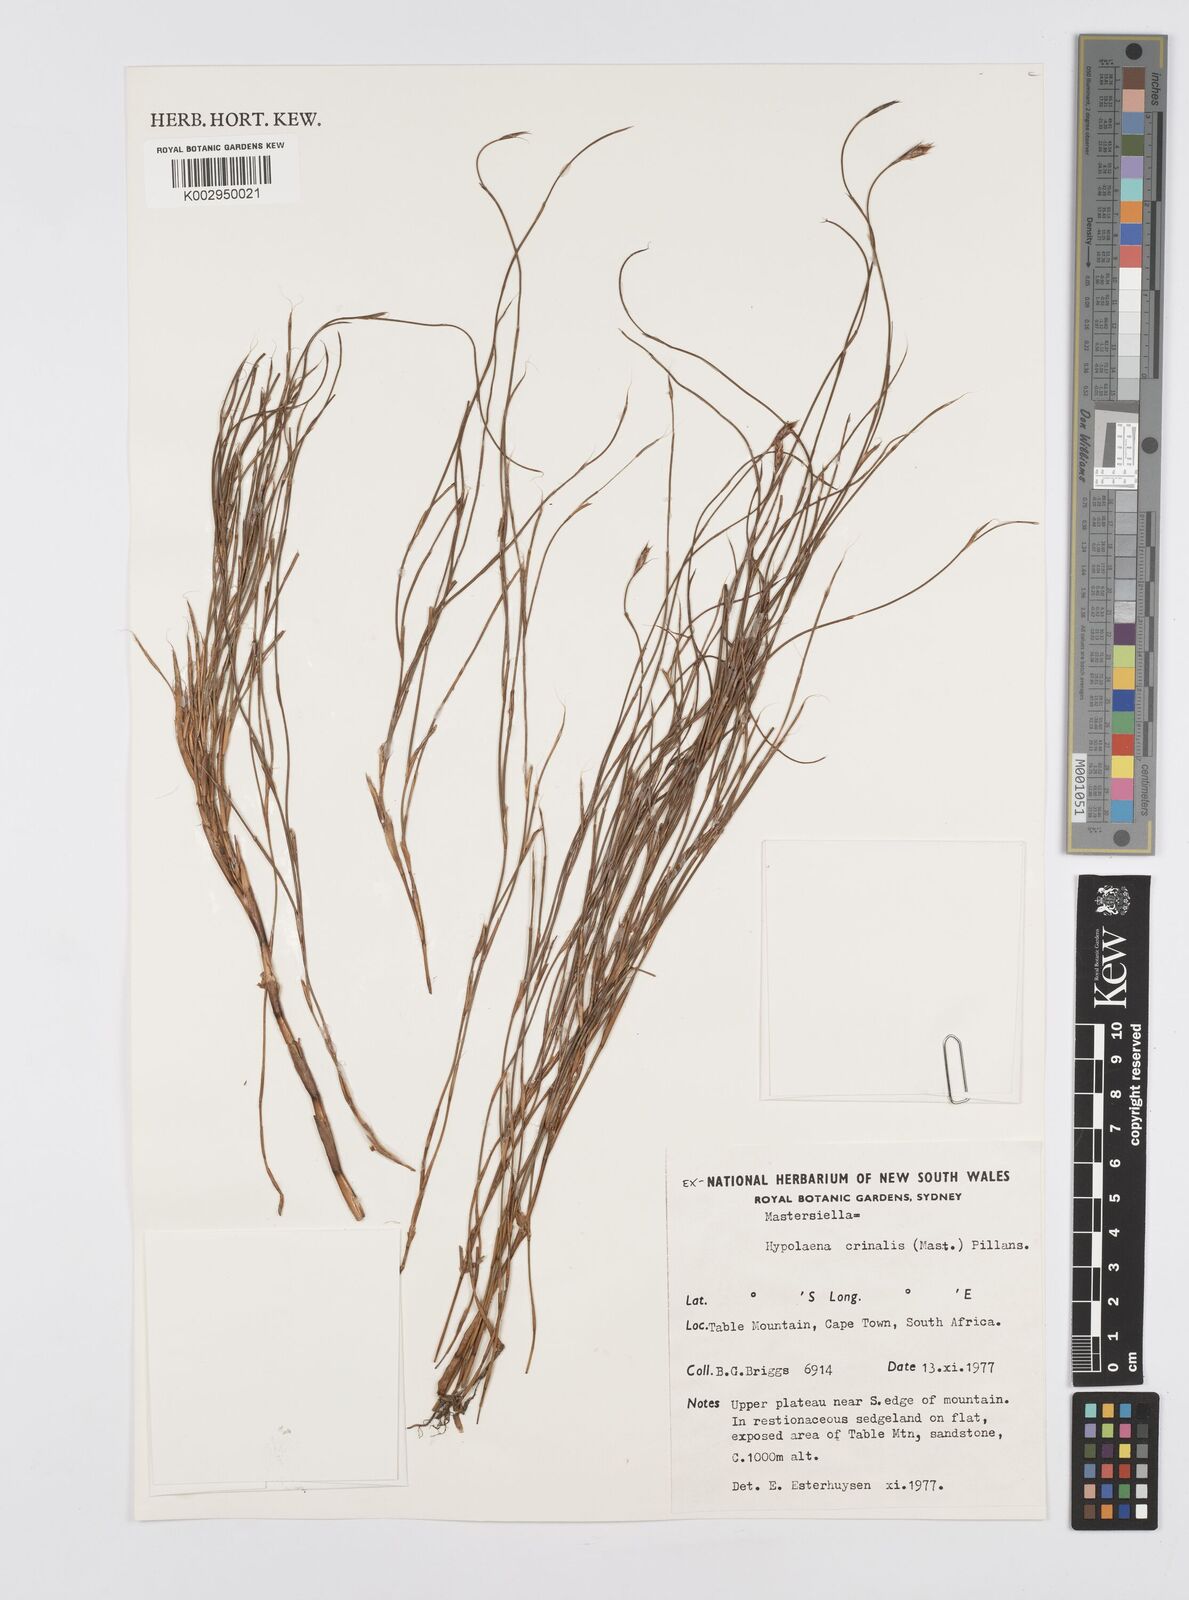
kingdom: Plantae
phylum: Tracheophyta
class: Liliopsida
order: Poales
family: Restionaceae
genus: Anthochortus
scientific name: Anthochortus
